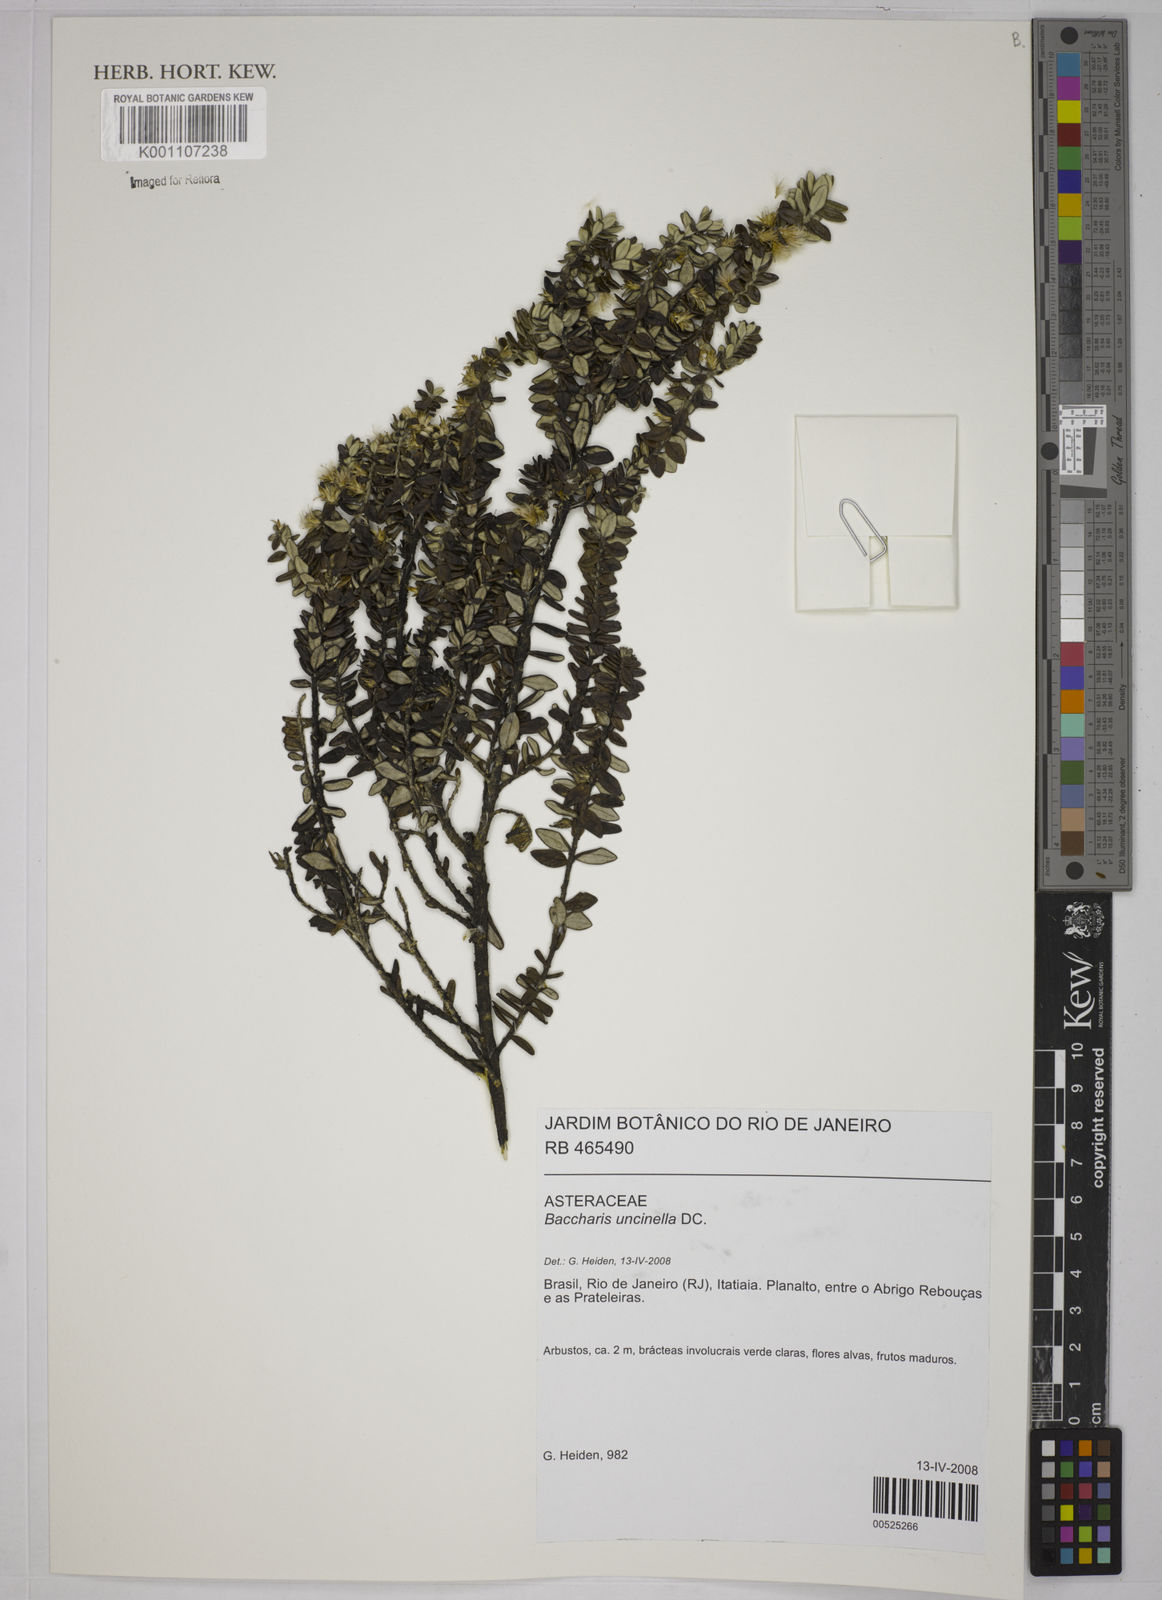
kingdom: Plantae
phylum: Tracheophyta
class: Magnoliopsida
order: Asterales
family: Asteraceae
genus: Baccharis
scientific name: Baccharis uncinella
